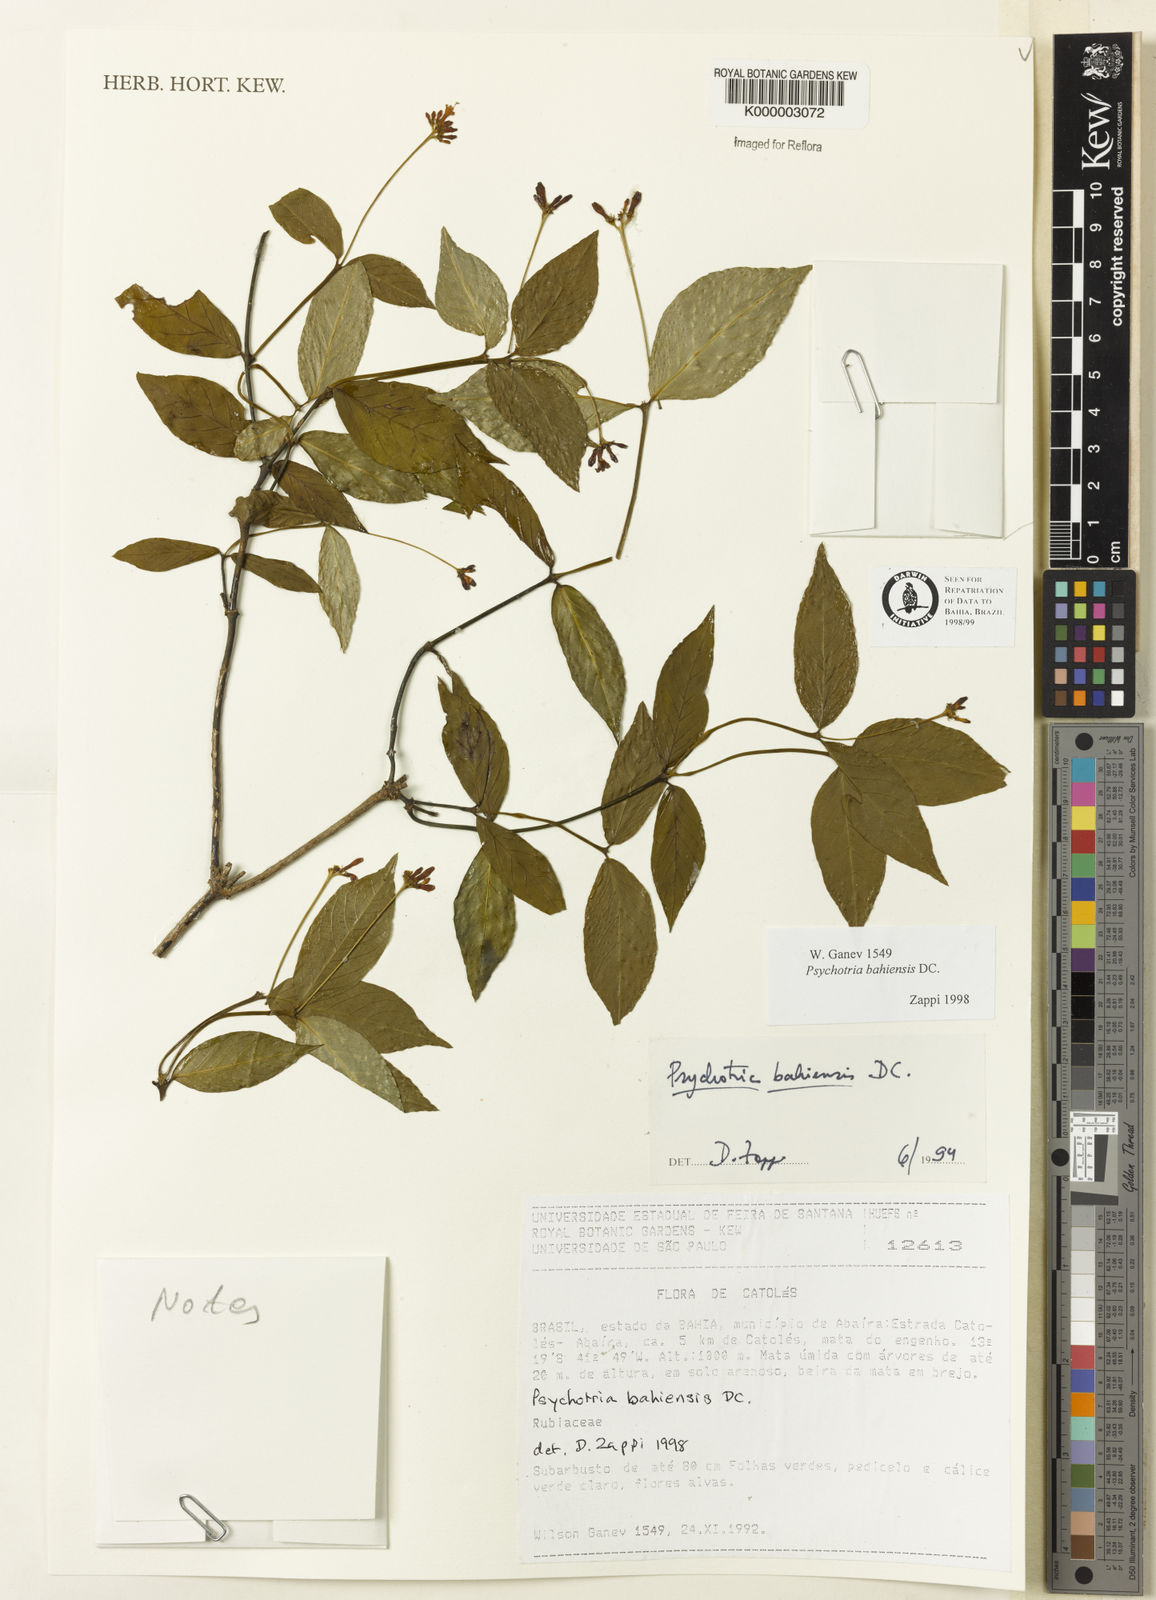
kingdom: Plantae
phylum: Tracheophyta
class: Magnoliopsida
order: Gentianales
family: Rubiaceae
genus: Psychotria
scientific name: Psychotria bahiensis
